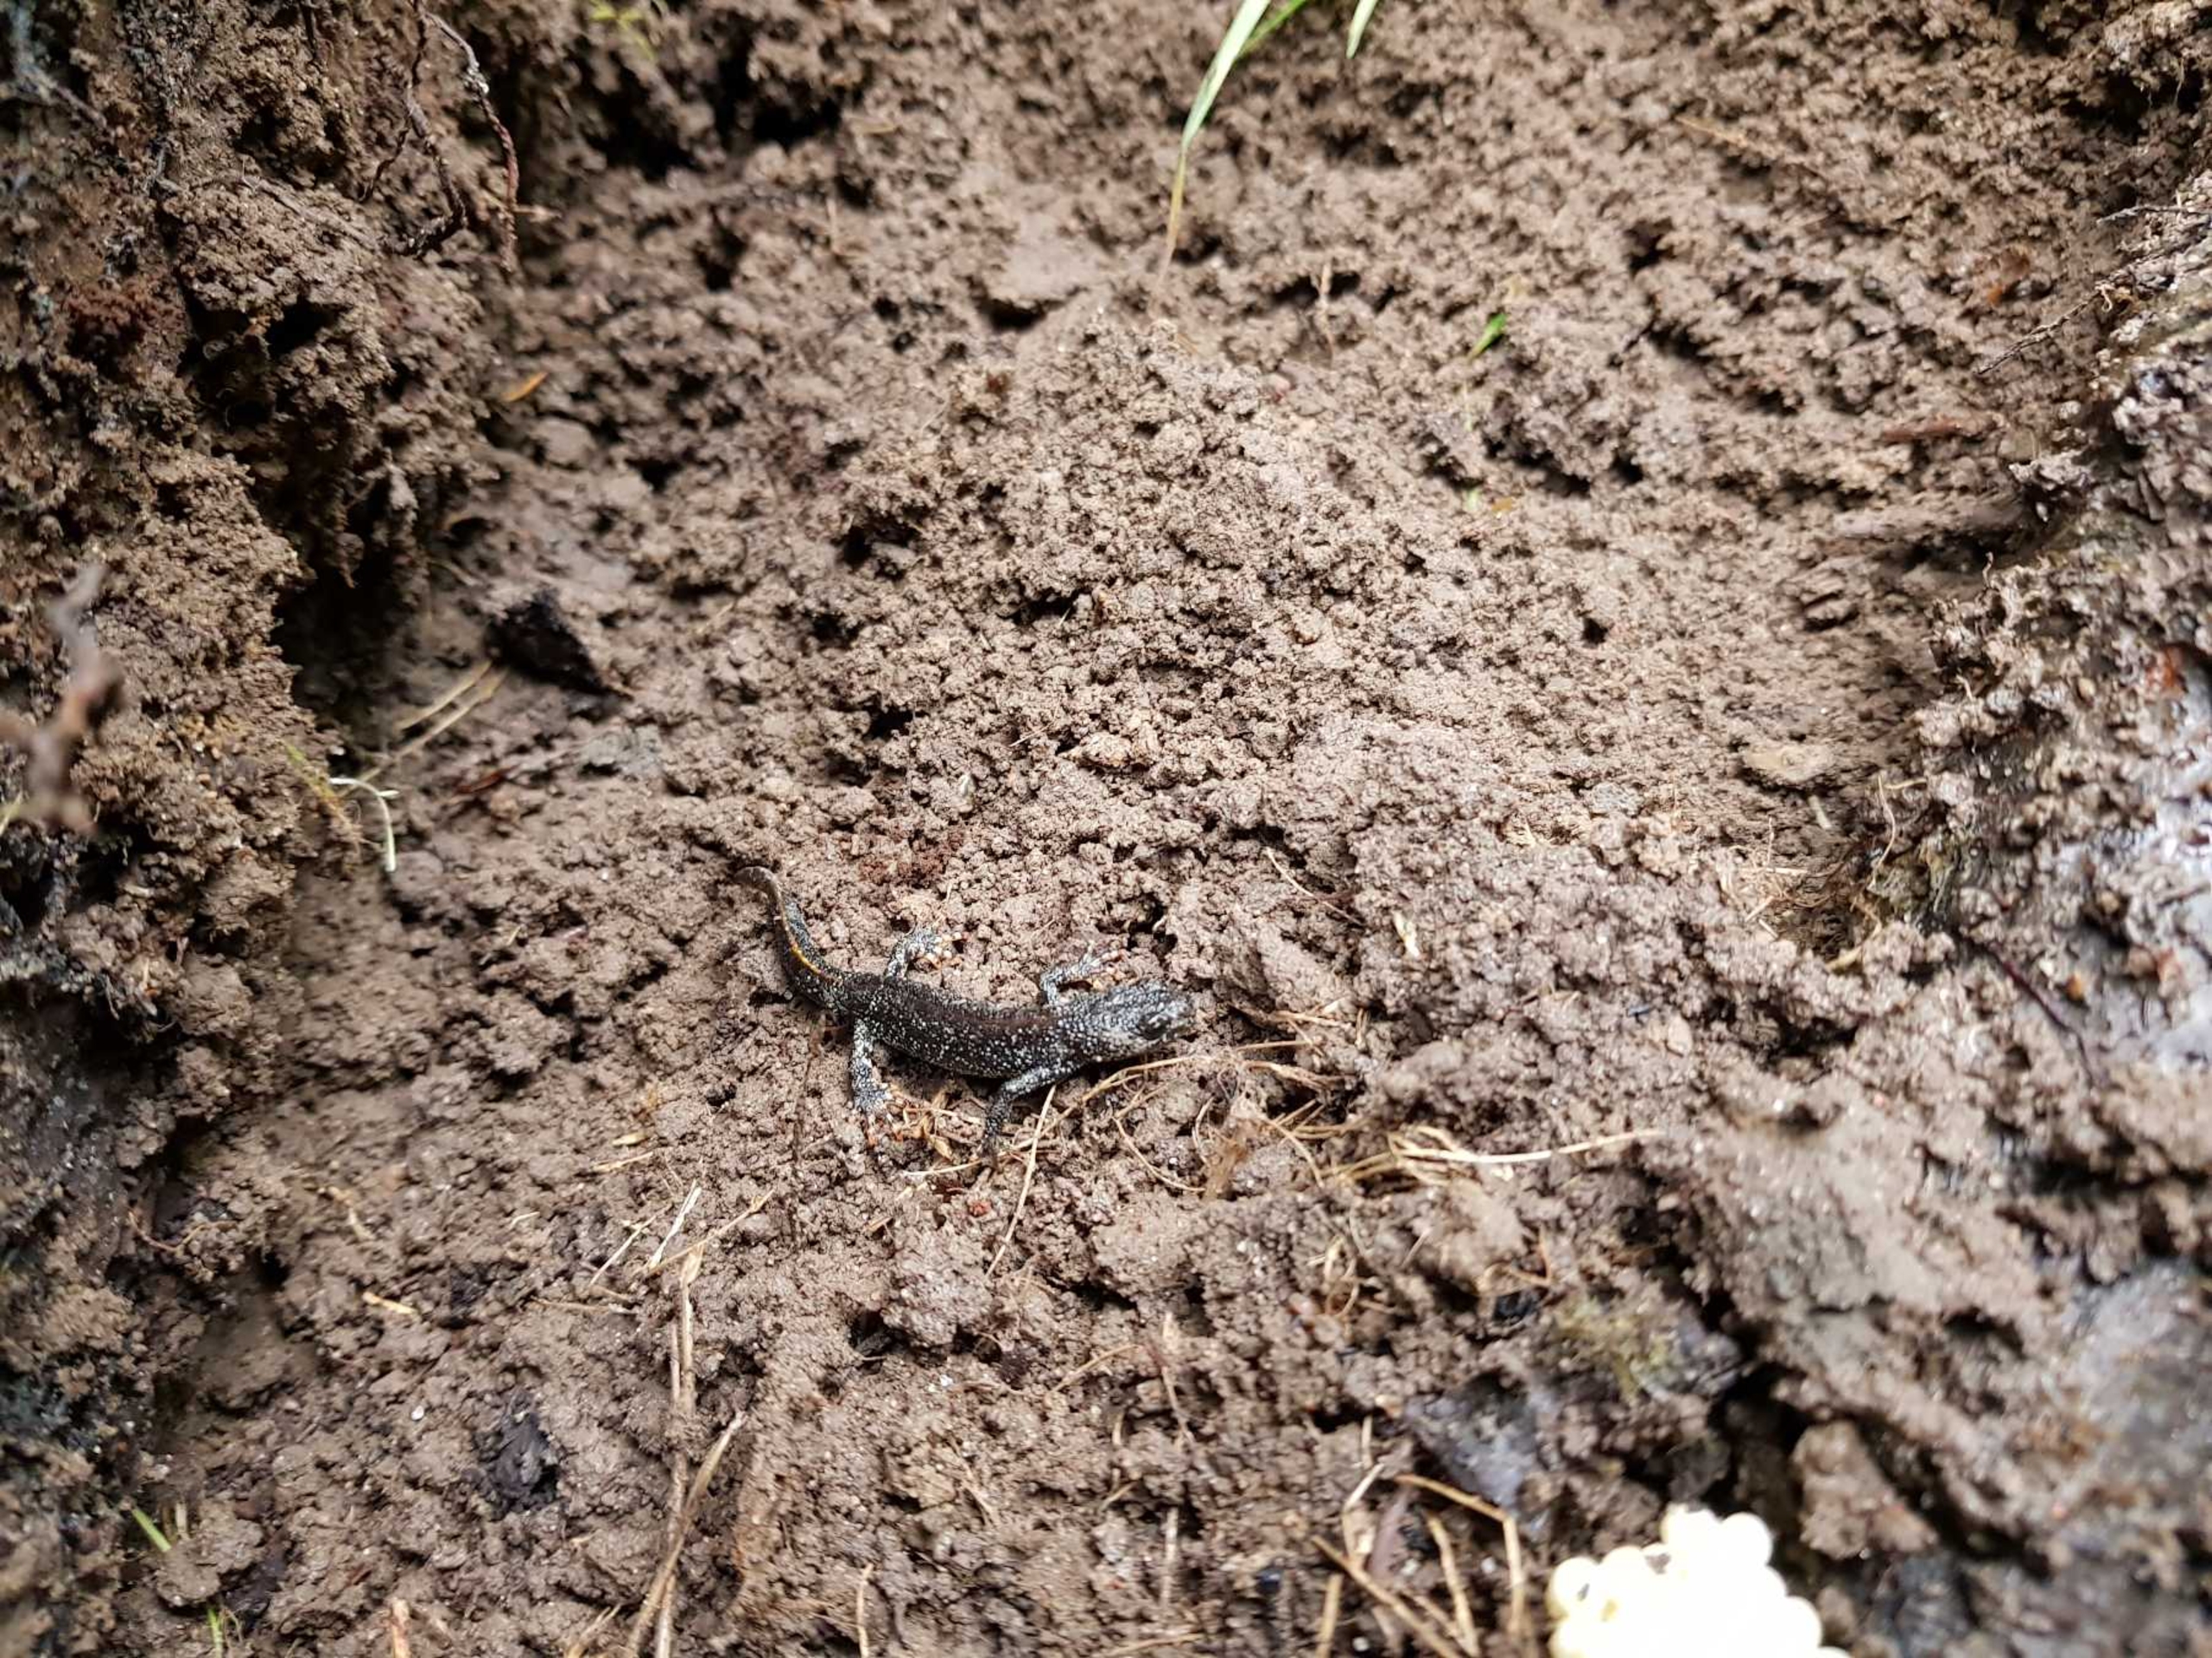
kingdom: Animalia
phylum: Chordata
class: Amphibia
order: Caudata
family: Salamandridae
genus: Triturus
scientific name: Triturus cristatus
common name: Stor vandsalamander
